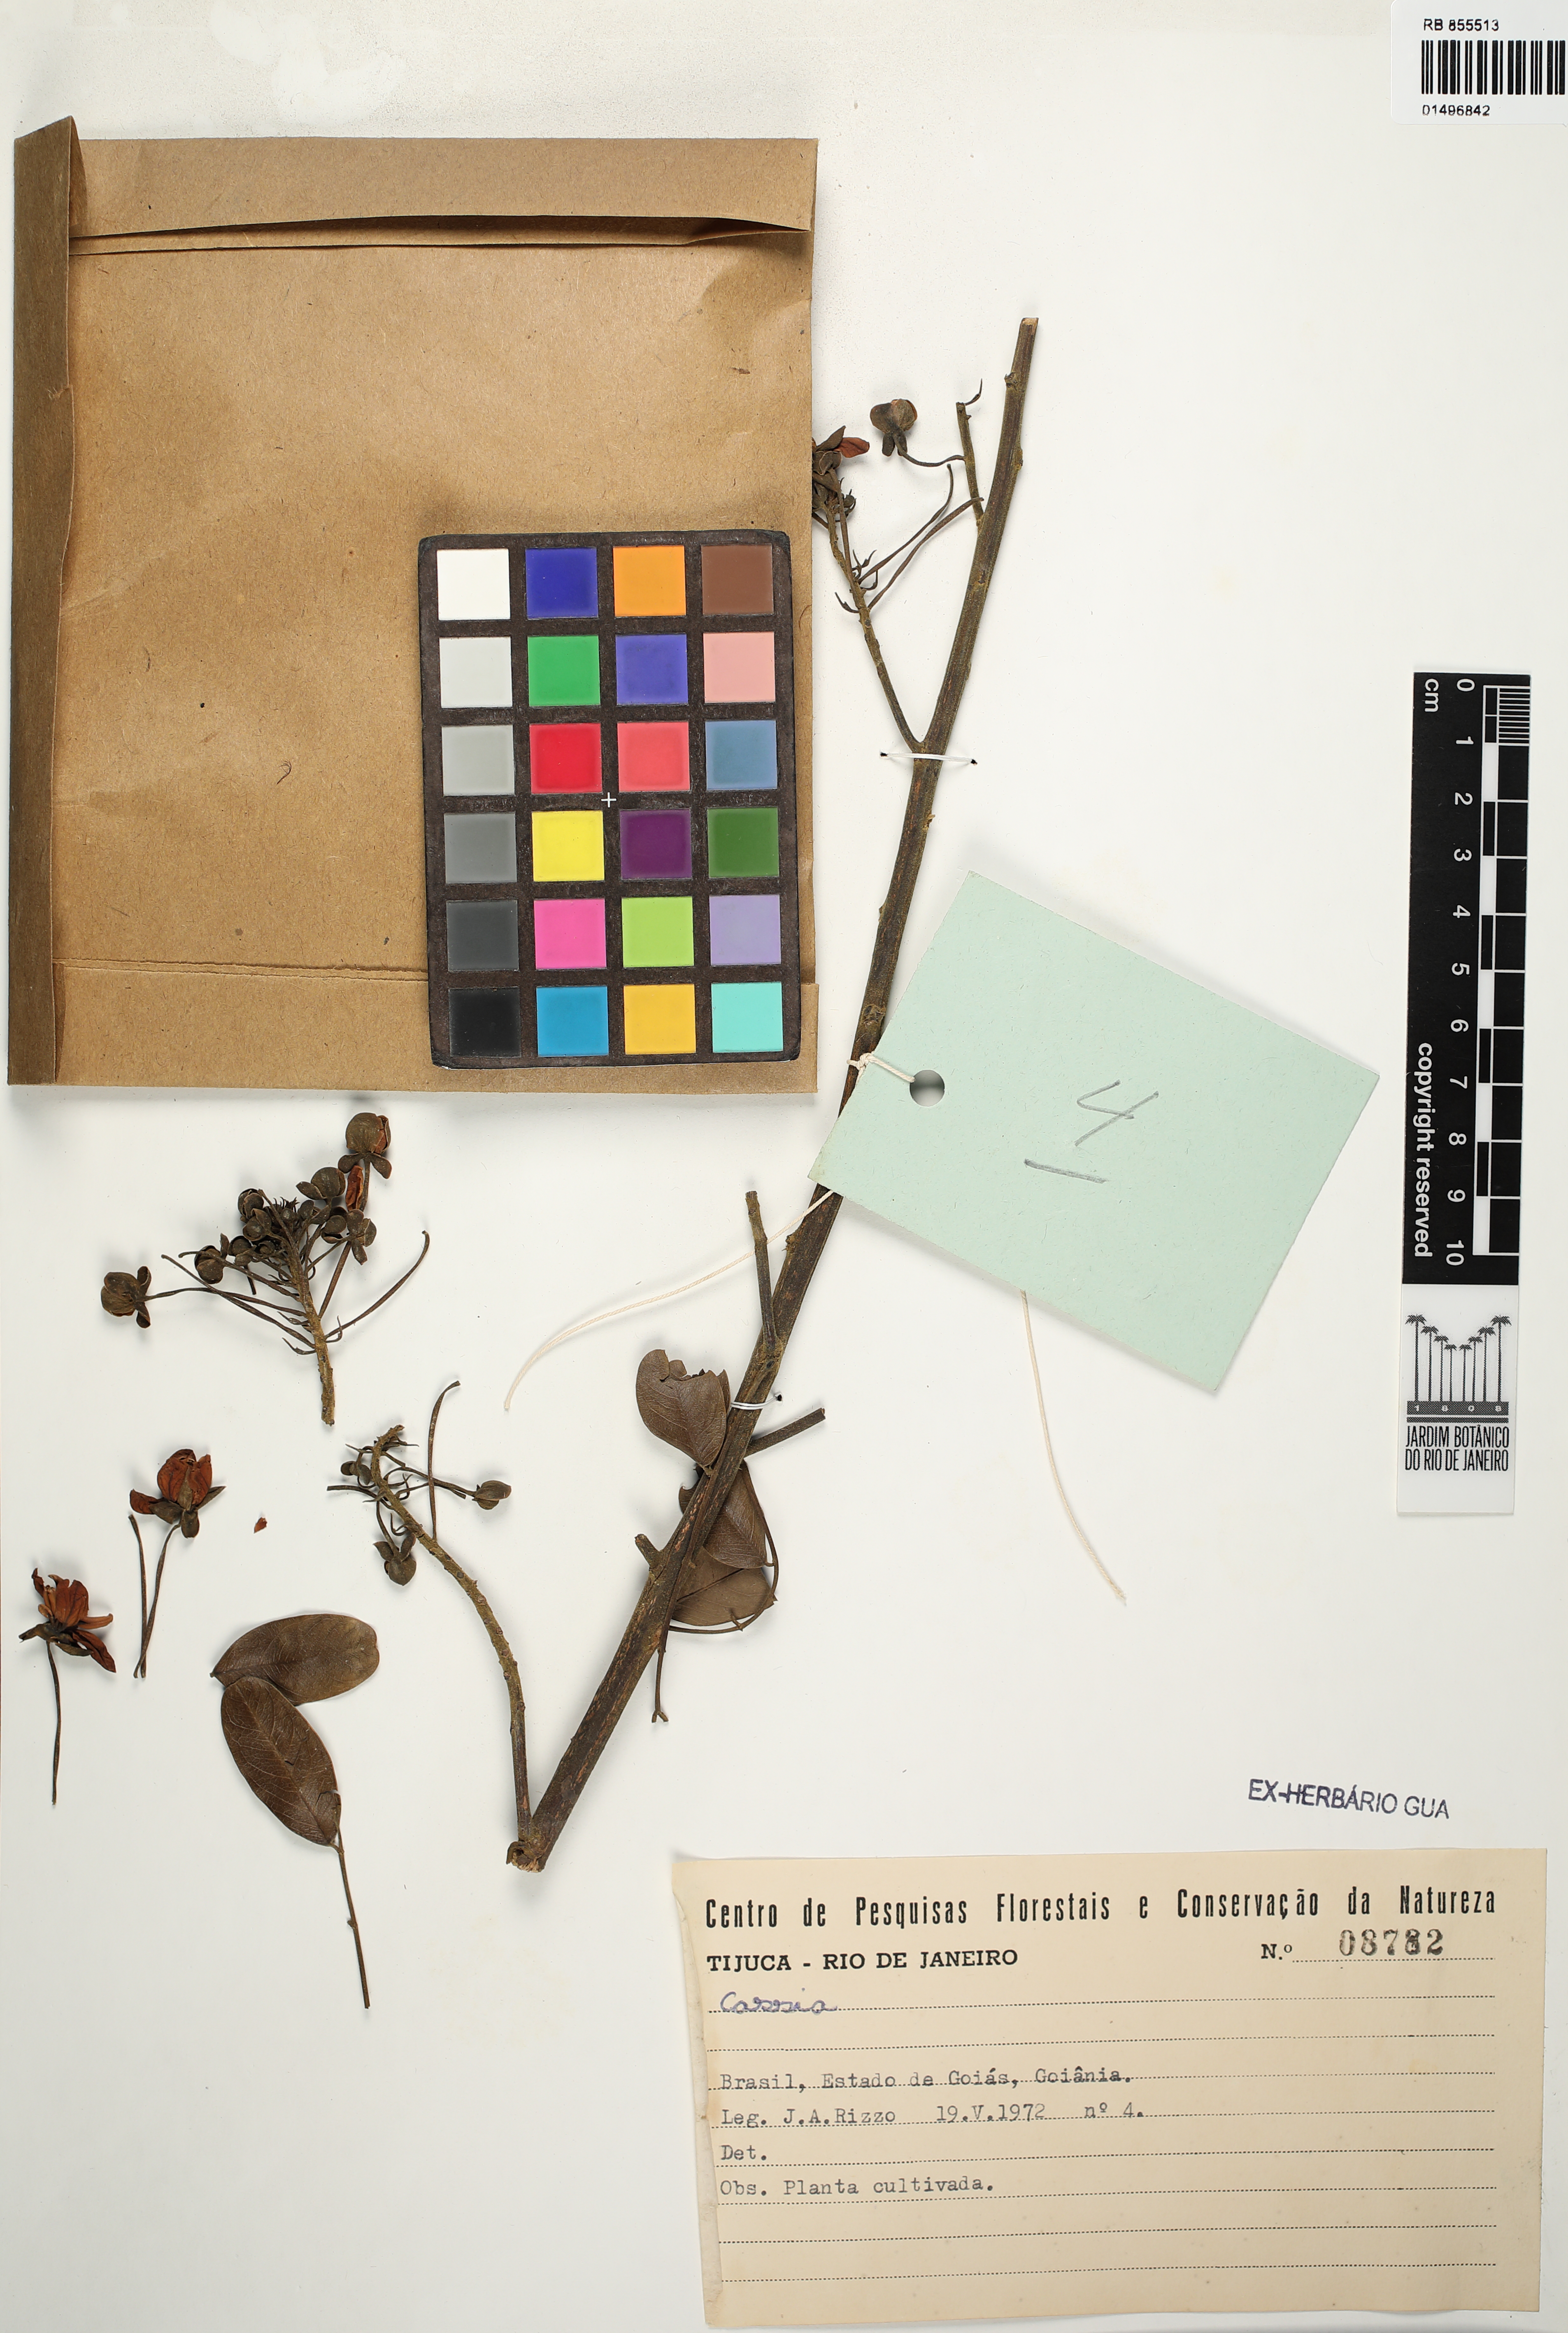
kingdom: Plantae
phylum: Tracheophyta
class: Magnoliopsida
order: Fabales
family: Fabaceae
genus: Senna
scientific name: Senna pendula
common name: Easter cassia
